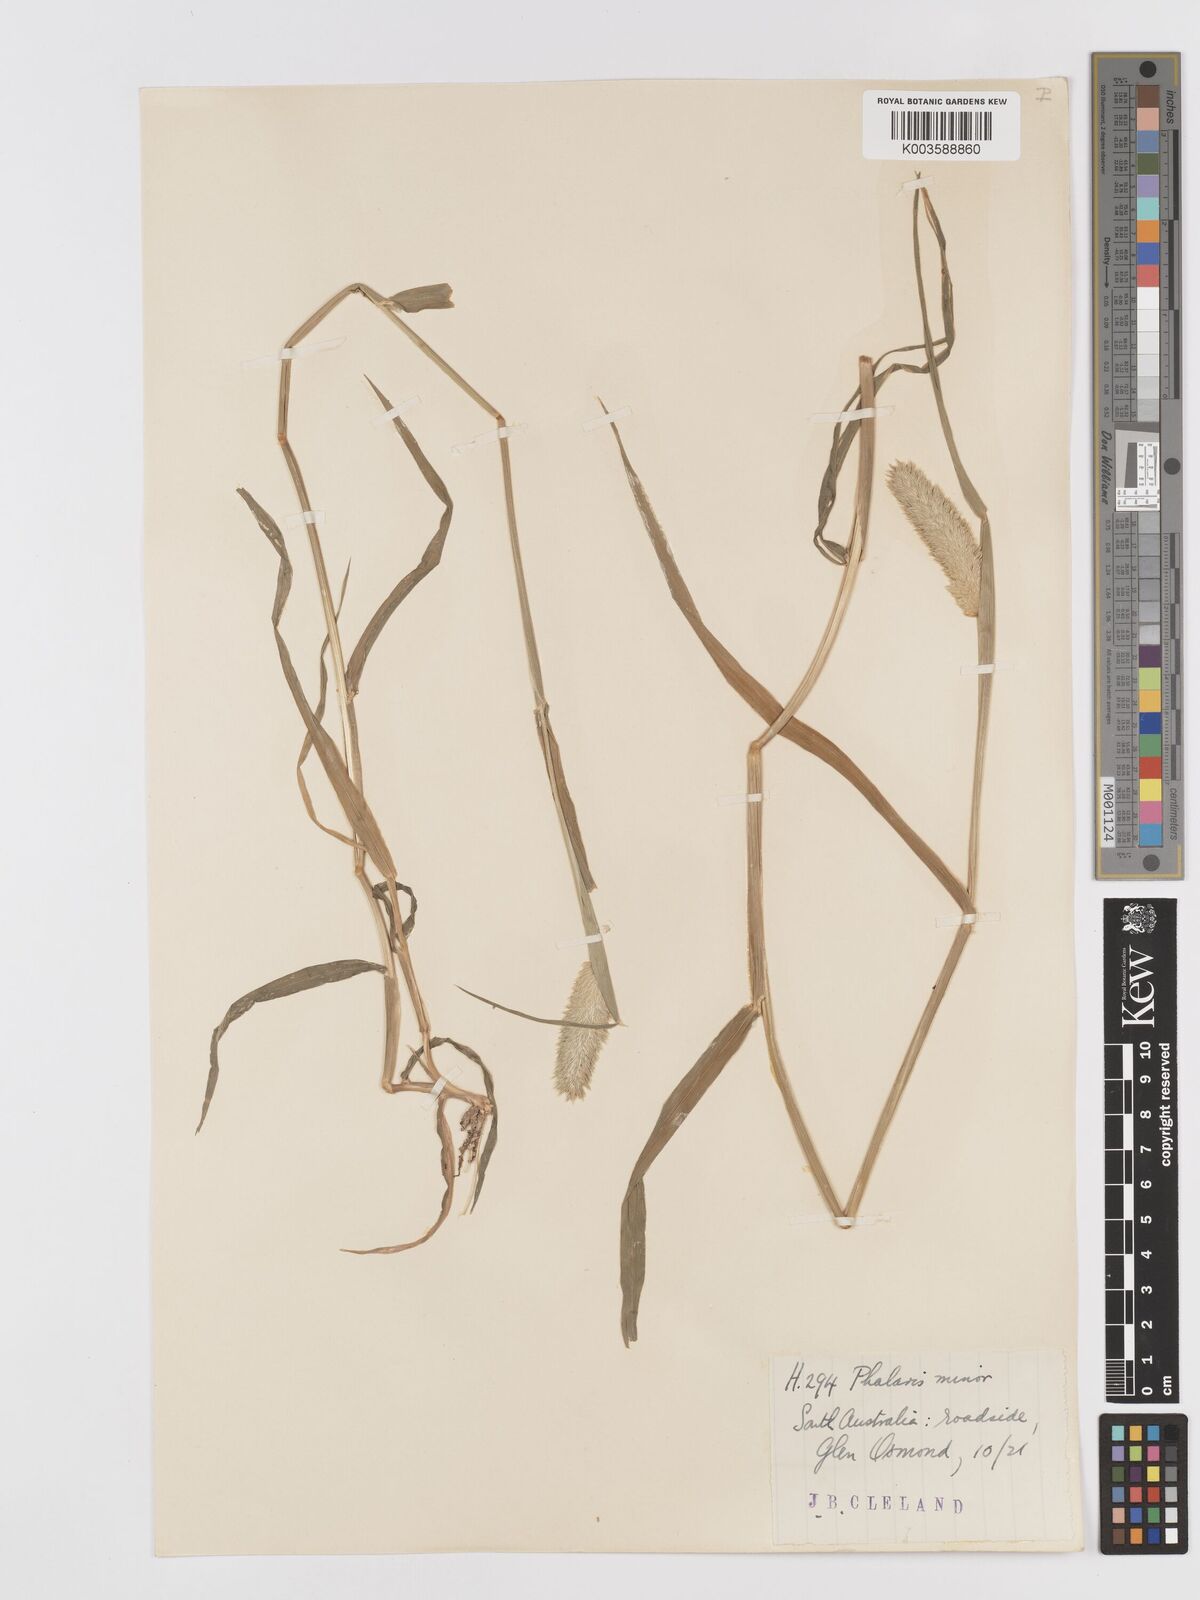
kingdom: Plantae
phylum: Tracheophyta
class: Liliopsida
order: Poales
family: Poaceae
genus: Phalaris
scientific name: Phalaris minor
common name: Littleseed canarygrass
